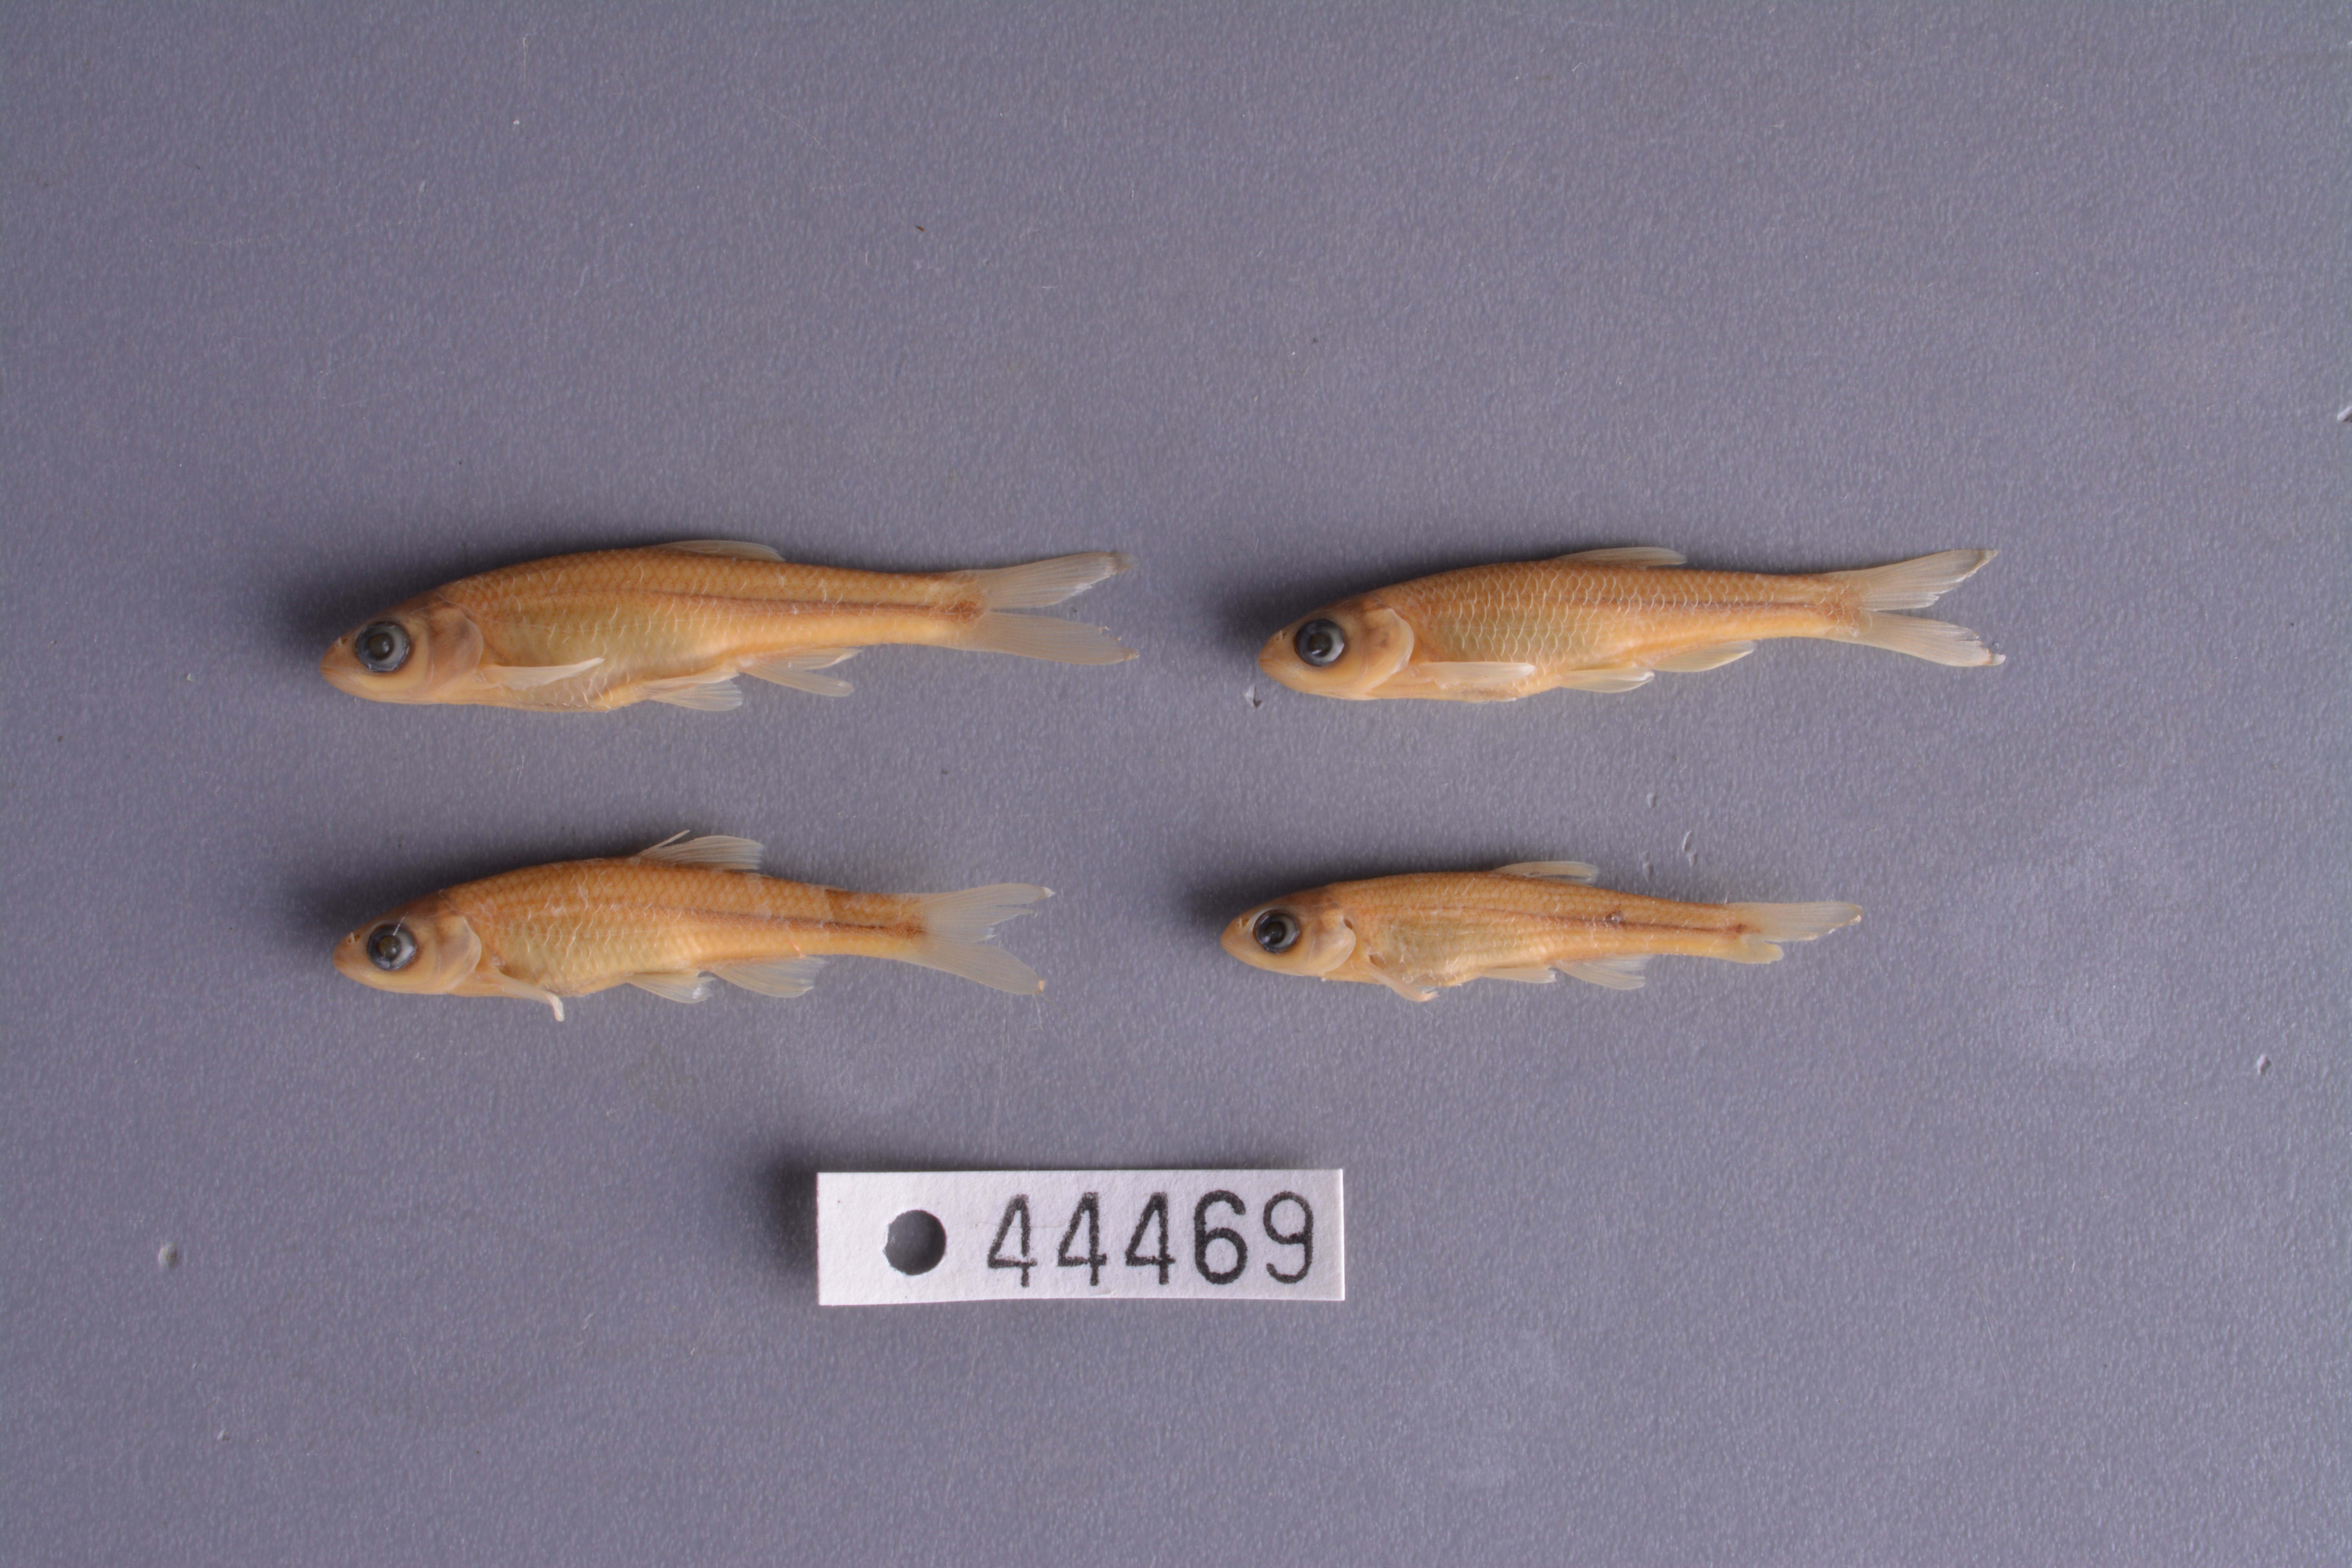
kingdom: Animalia
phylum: Chordata
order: Cypriniformes
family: Cyprinidae
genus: Cyprinella
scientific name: Cyprinella lepida
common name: Plateau shiner
